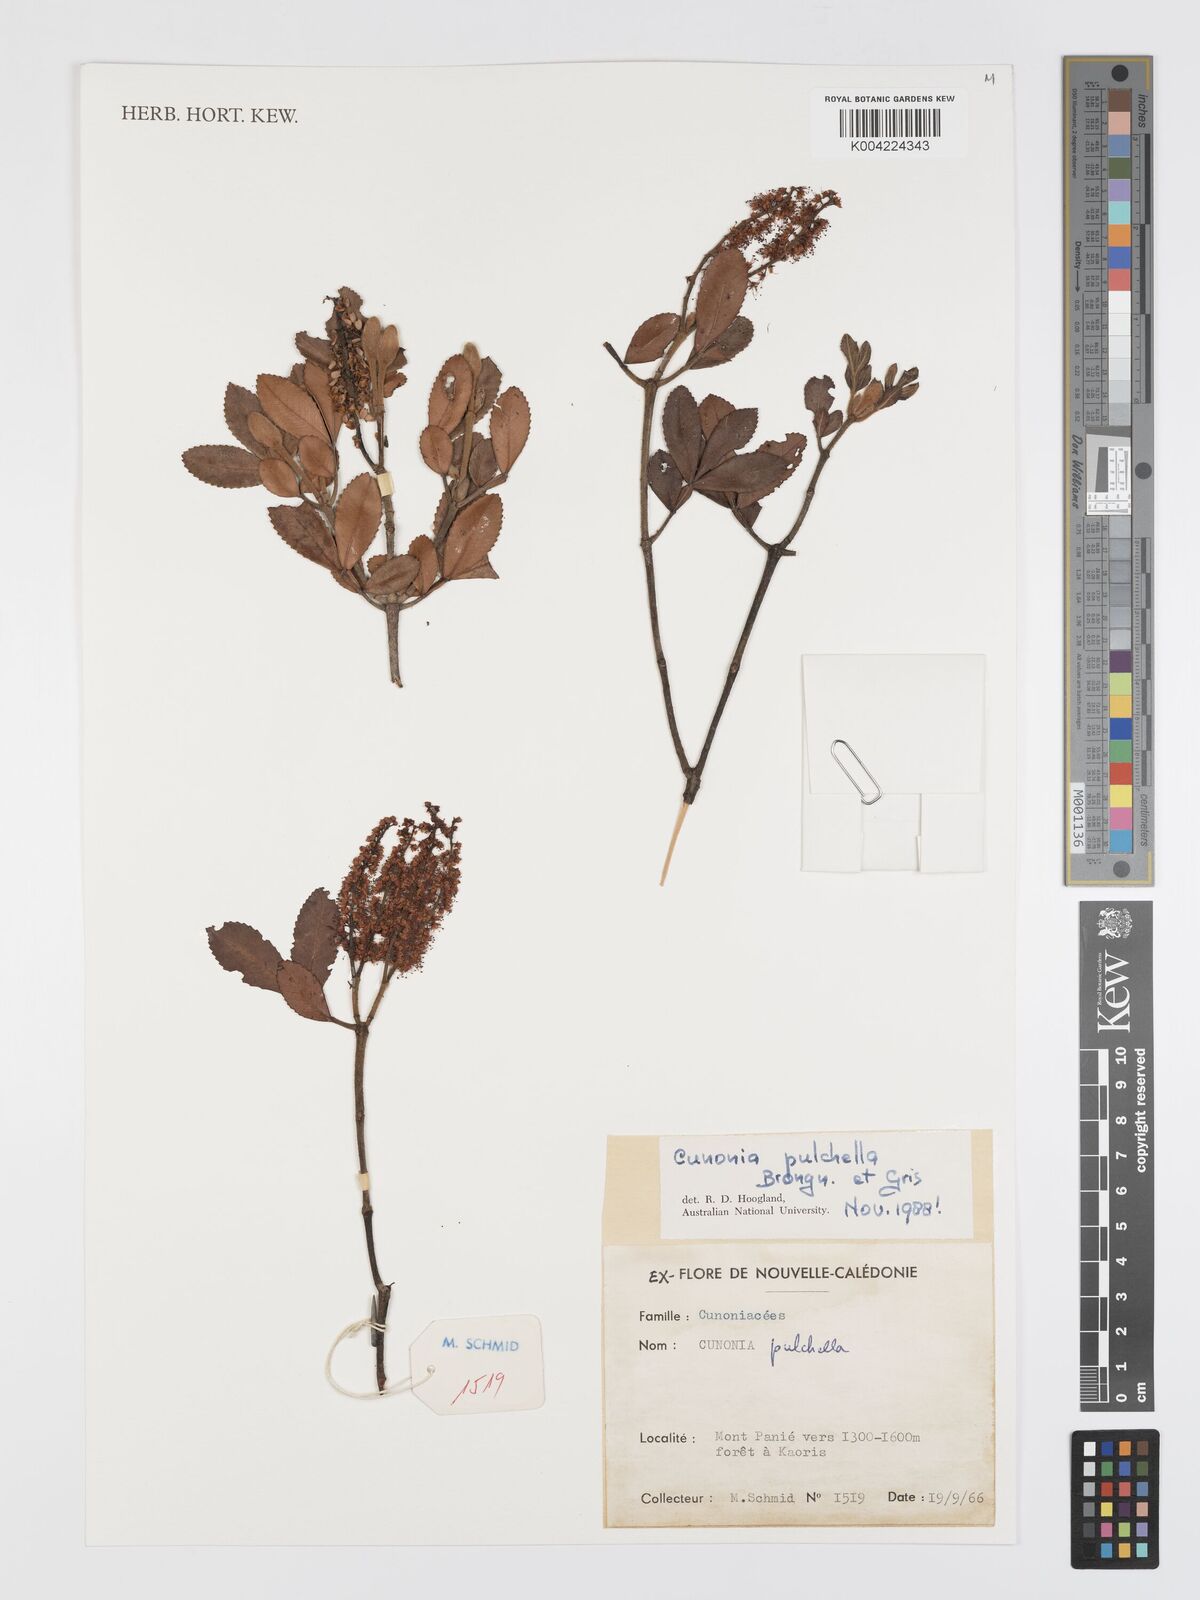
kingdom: Plantae
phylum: Tracheophyta
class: Magnoliopsida
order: Oxalidales
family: Cunoniaceae
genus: Cunonia
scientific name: Cunonia pulchella
